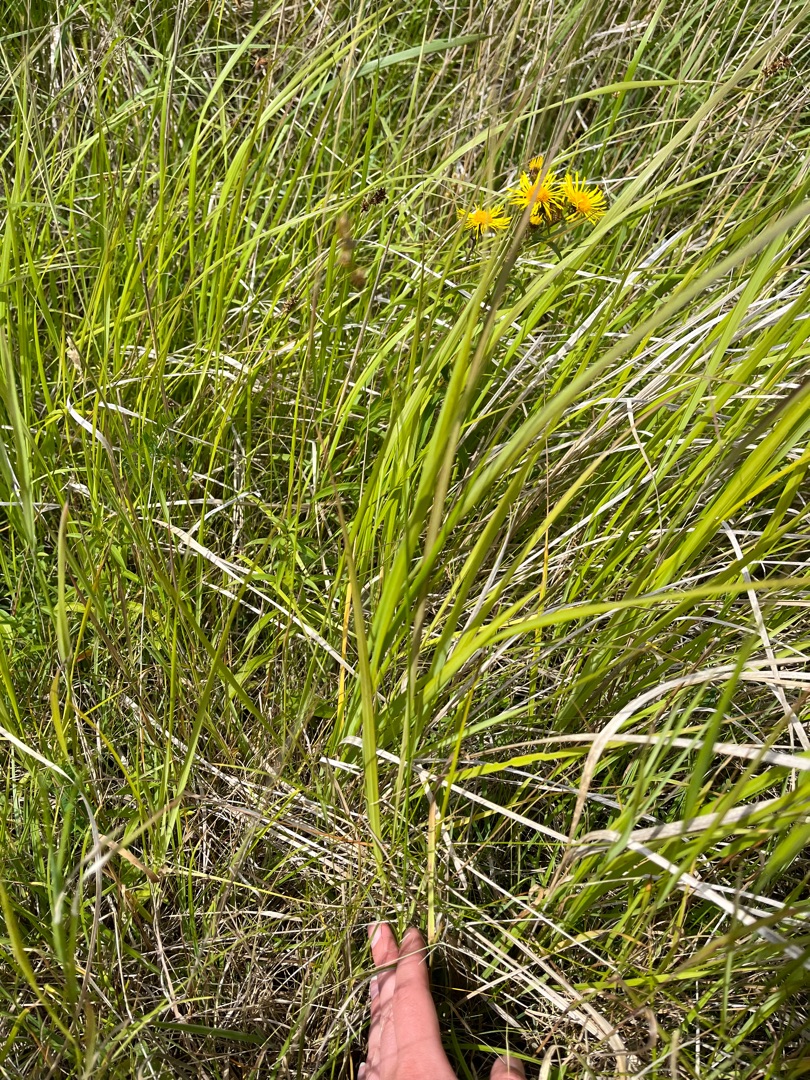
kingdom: Plantae
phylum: Tracheophyta
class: Liliopsida
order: Poales
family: Cyperaceae
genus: Carex
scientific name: Carex spicata
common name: Spidskapslet star
